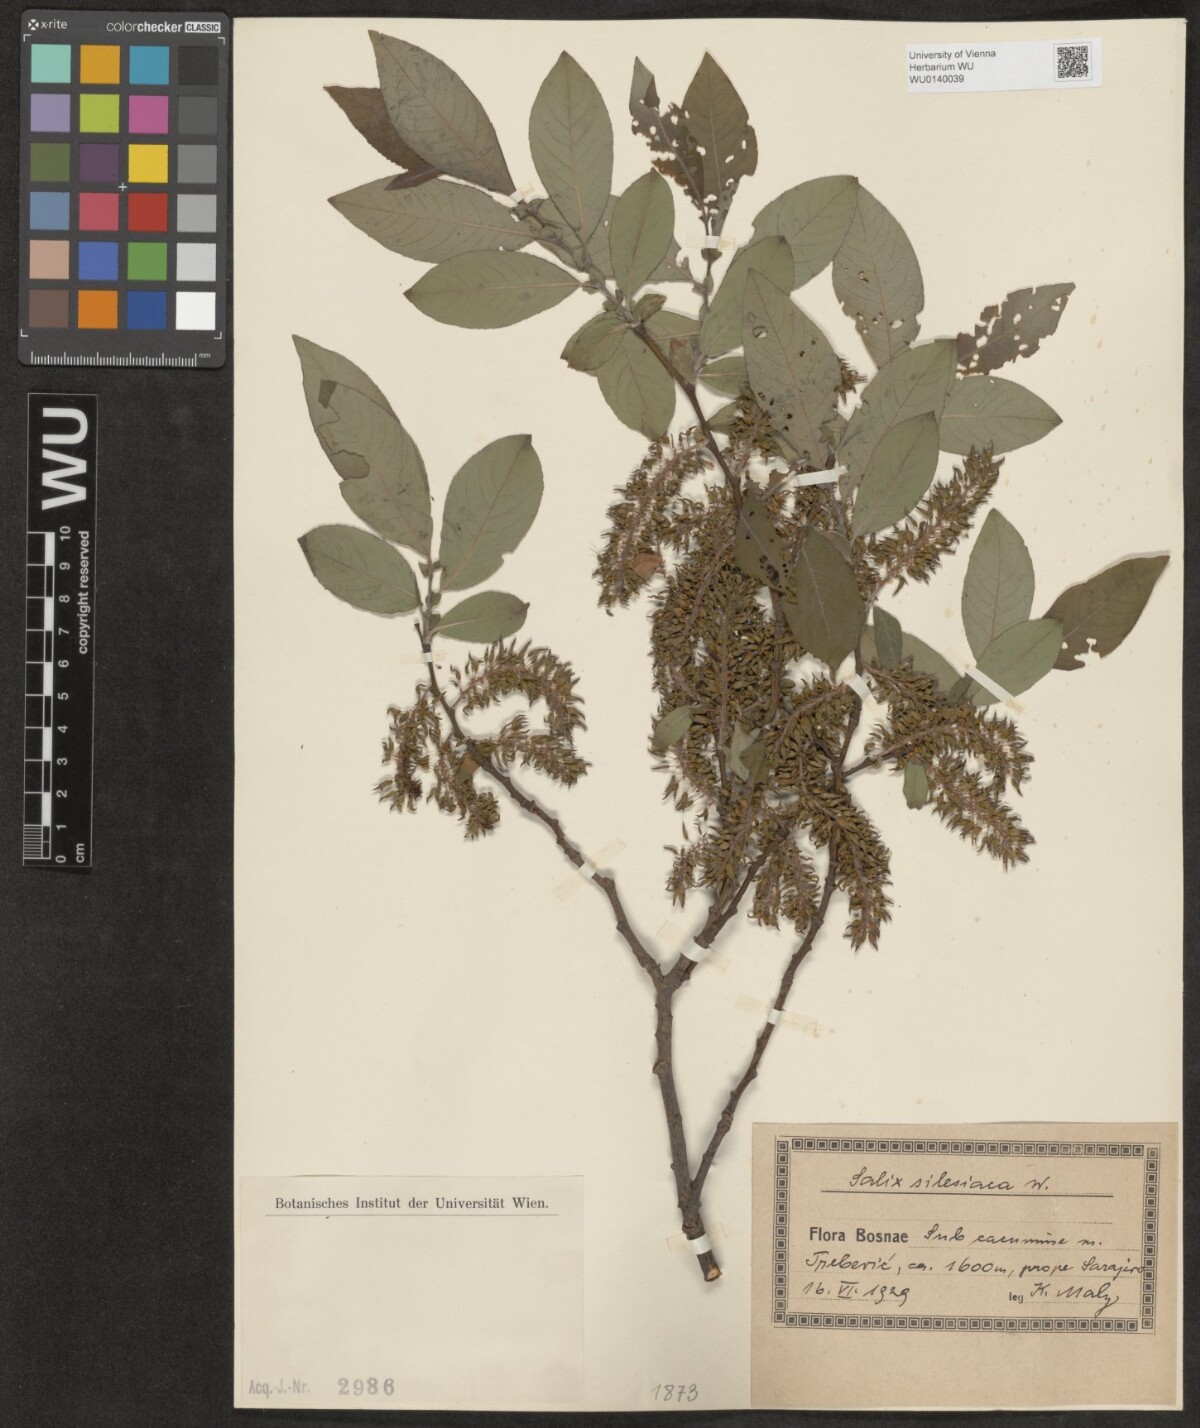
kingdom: Plantae
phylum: Tracheophyta
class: Magnoliopsida
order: Malpighiales
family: Salicaceae
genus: Salix
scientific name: Salix silesiaca
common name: Silesian willow
